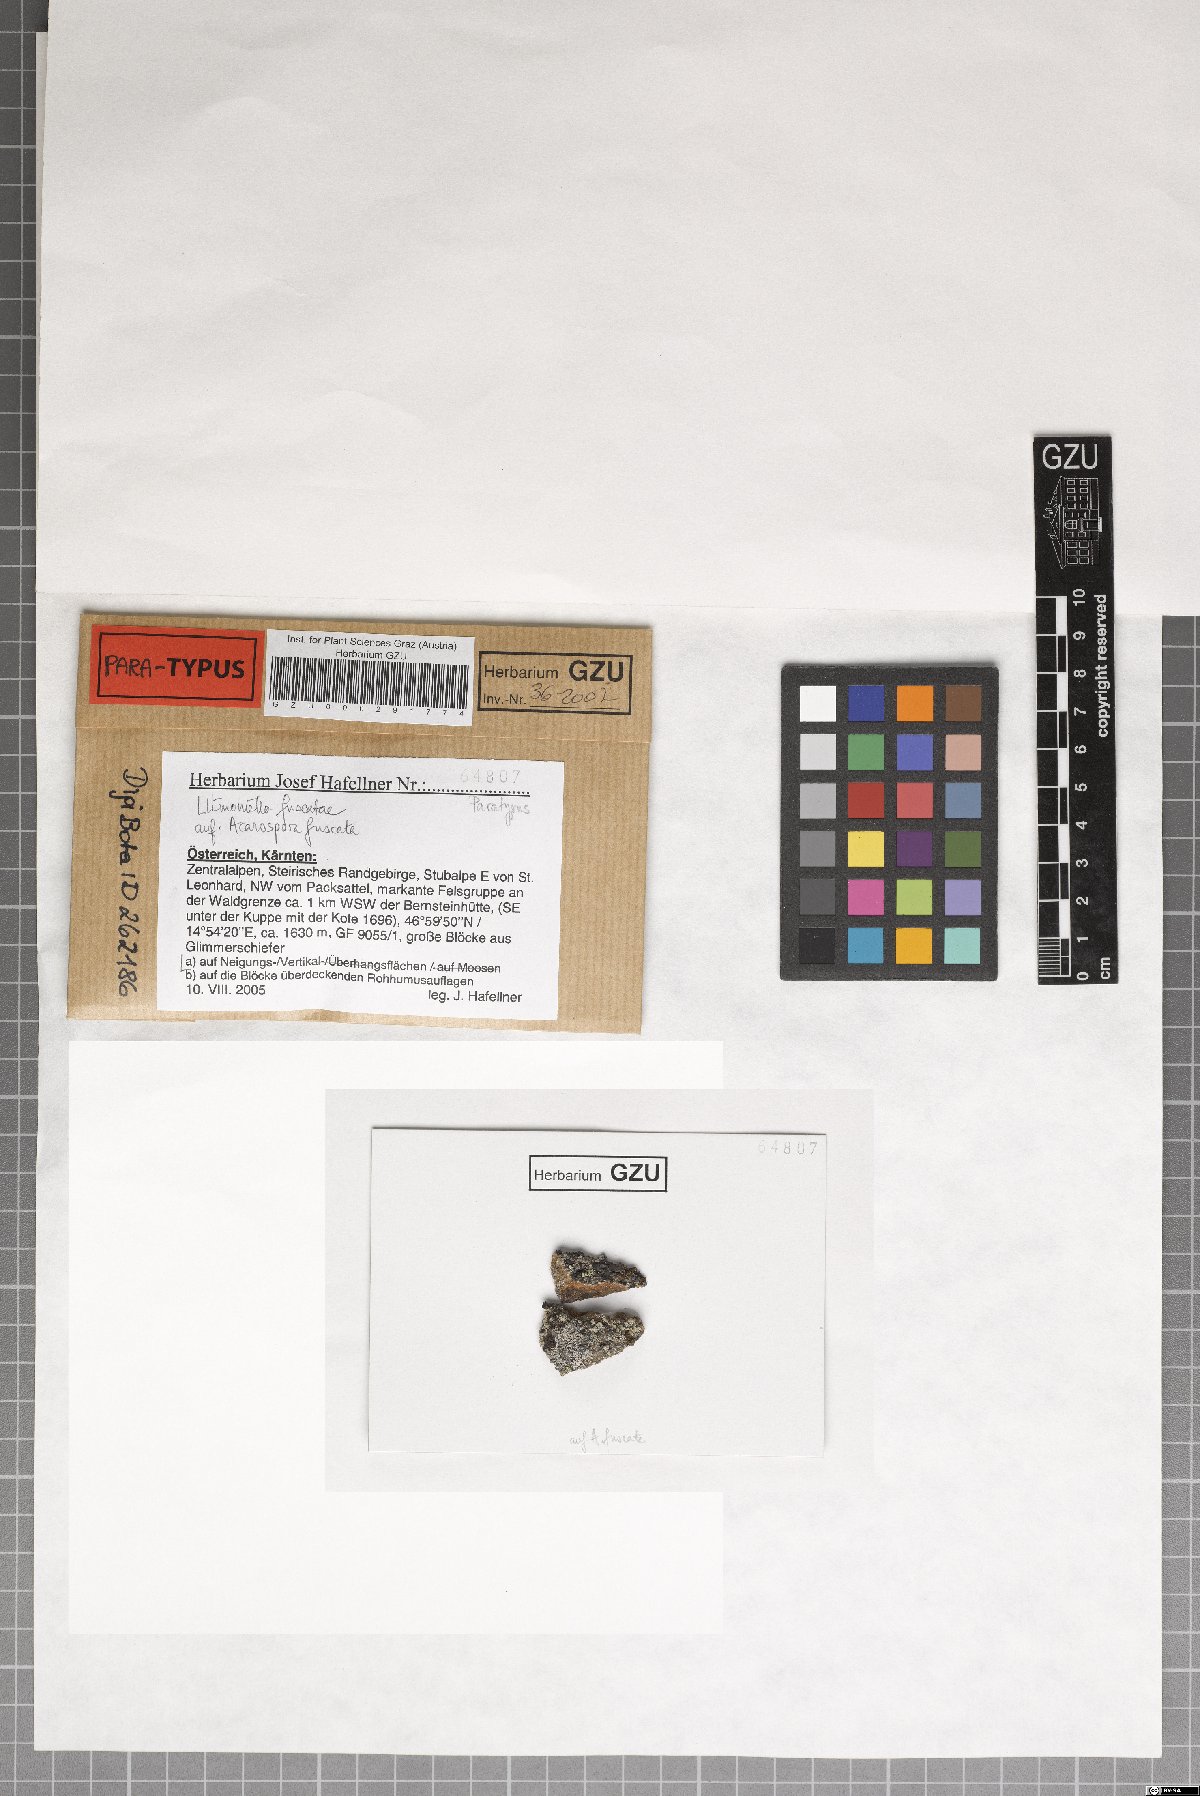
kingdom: Fungi
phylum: Ascomycota
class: Leotiomycetes
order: Helotiales
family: Cordieritidaceae
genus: Llimoniella
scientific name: Llimoniella fuscatae
